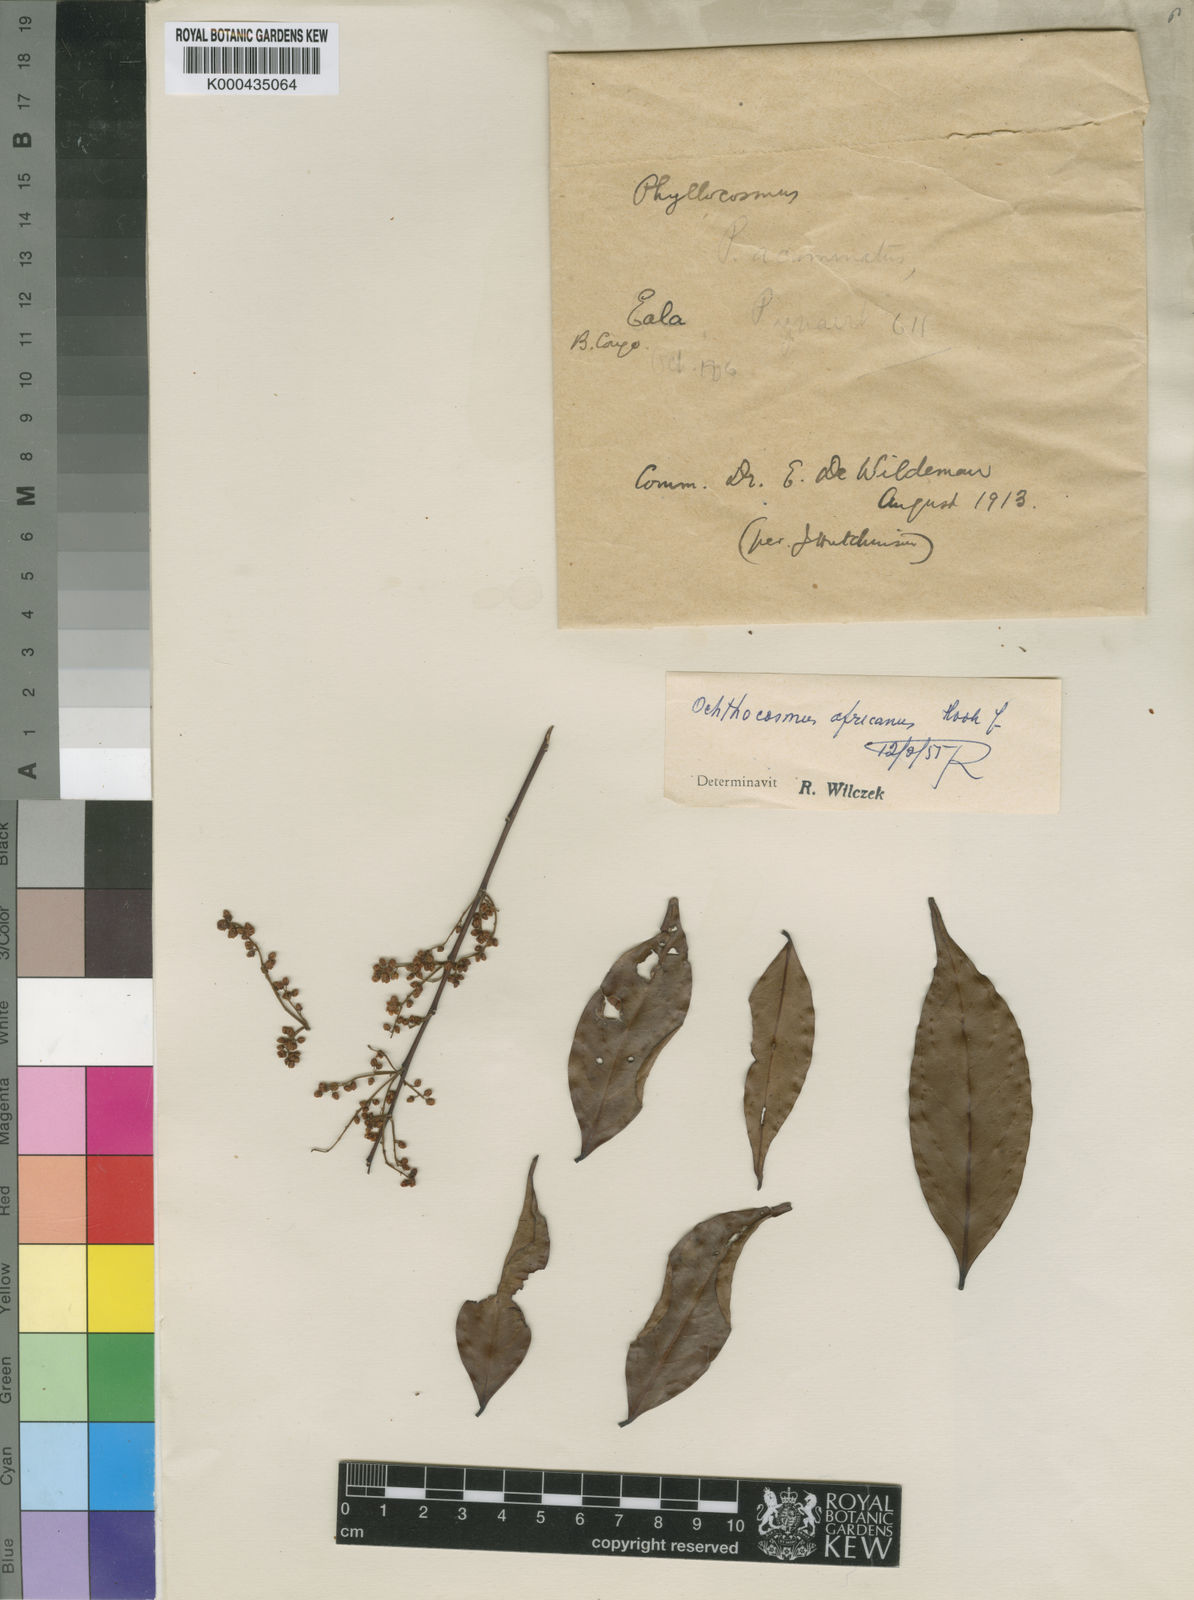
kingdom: Plantae
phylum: Tracheophyta
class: Magnoliopsida
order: Malpighiales
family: Ixonanthaceae
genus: Phyllocosmus
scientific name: Phyllocosmus africanus
